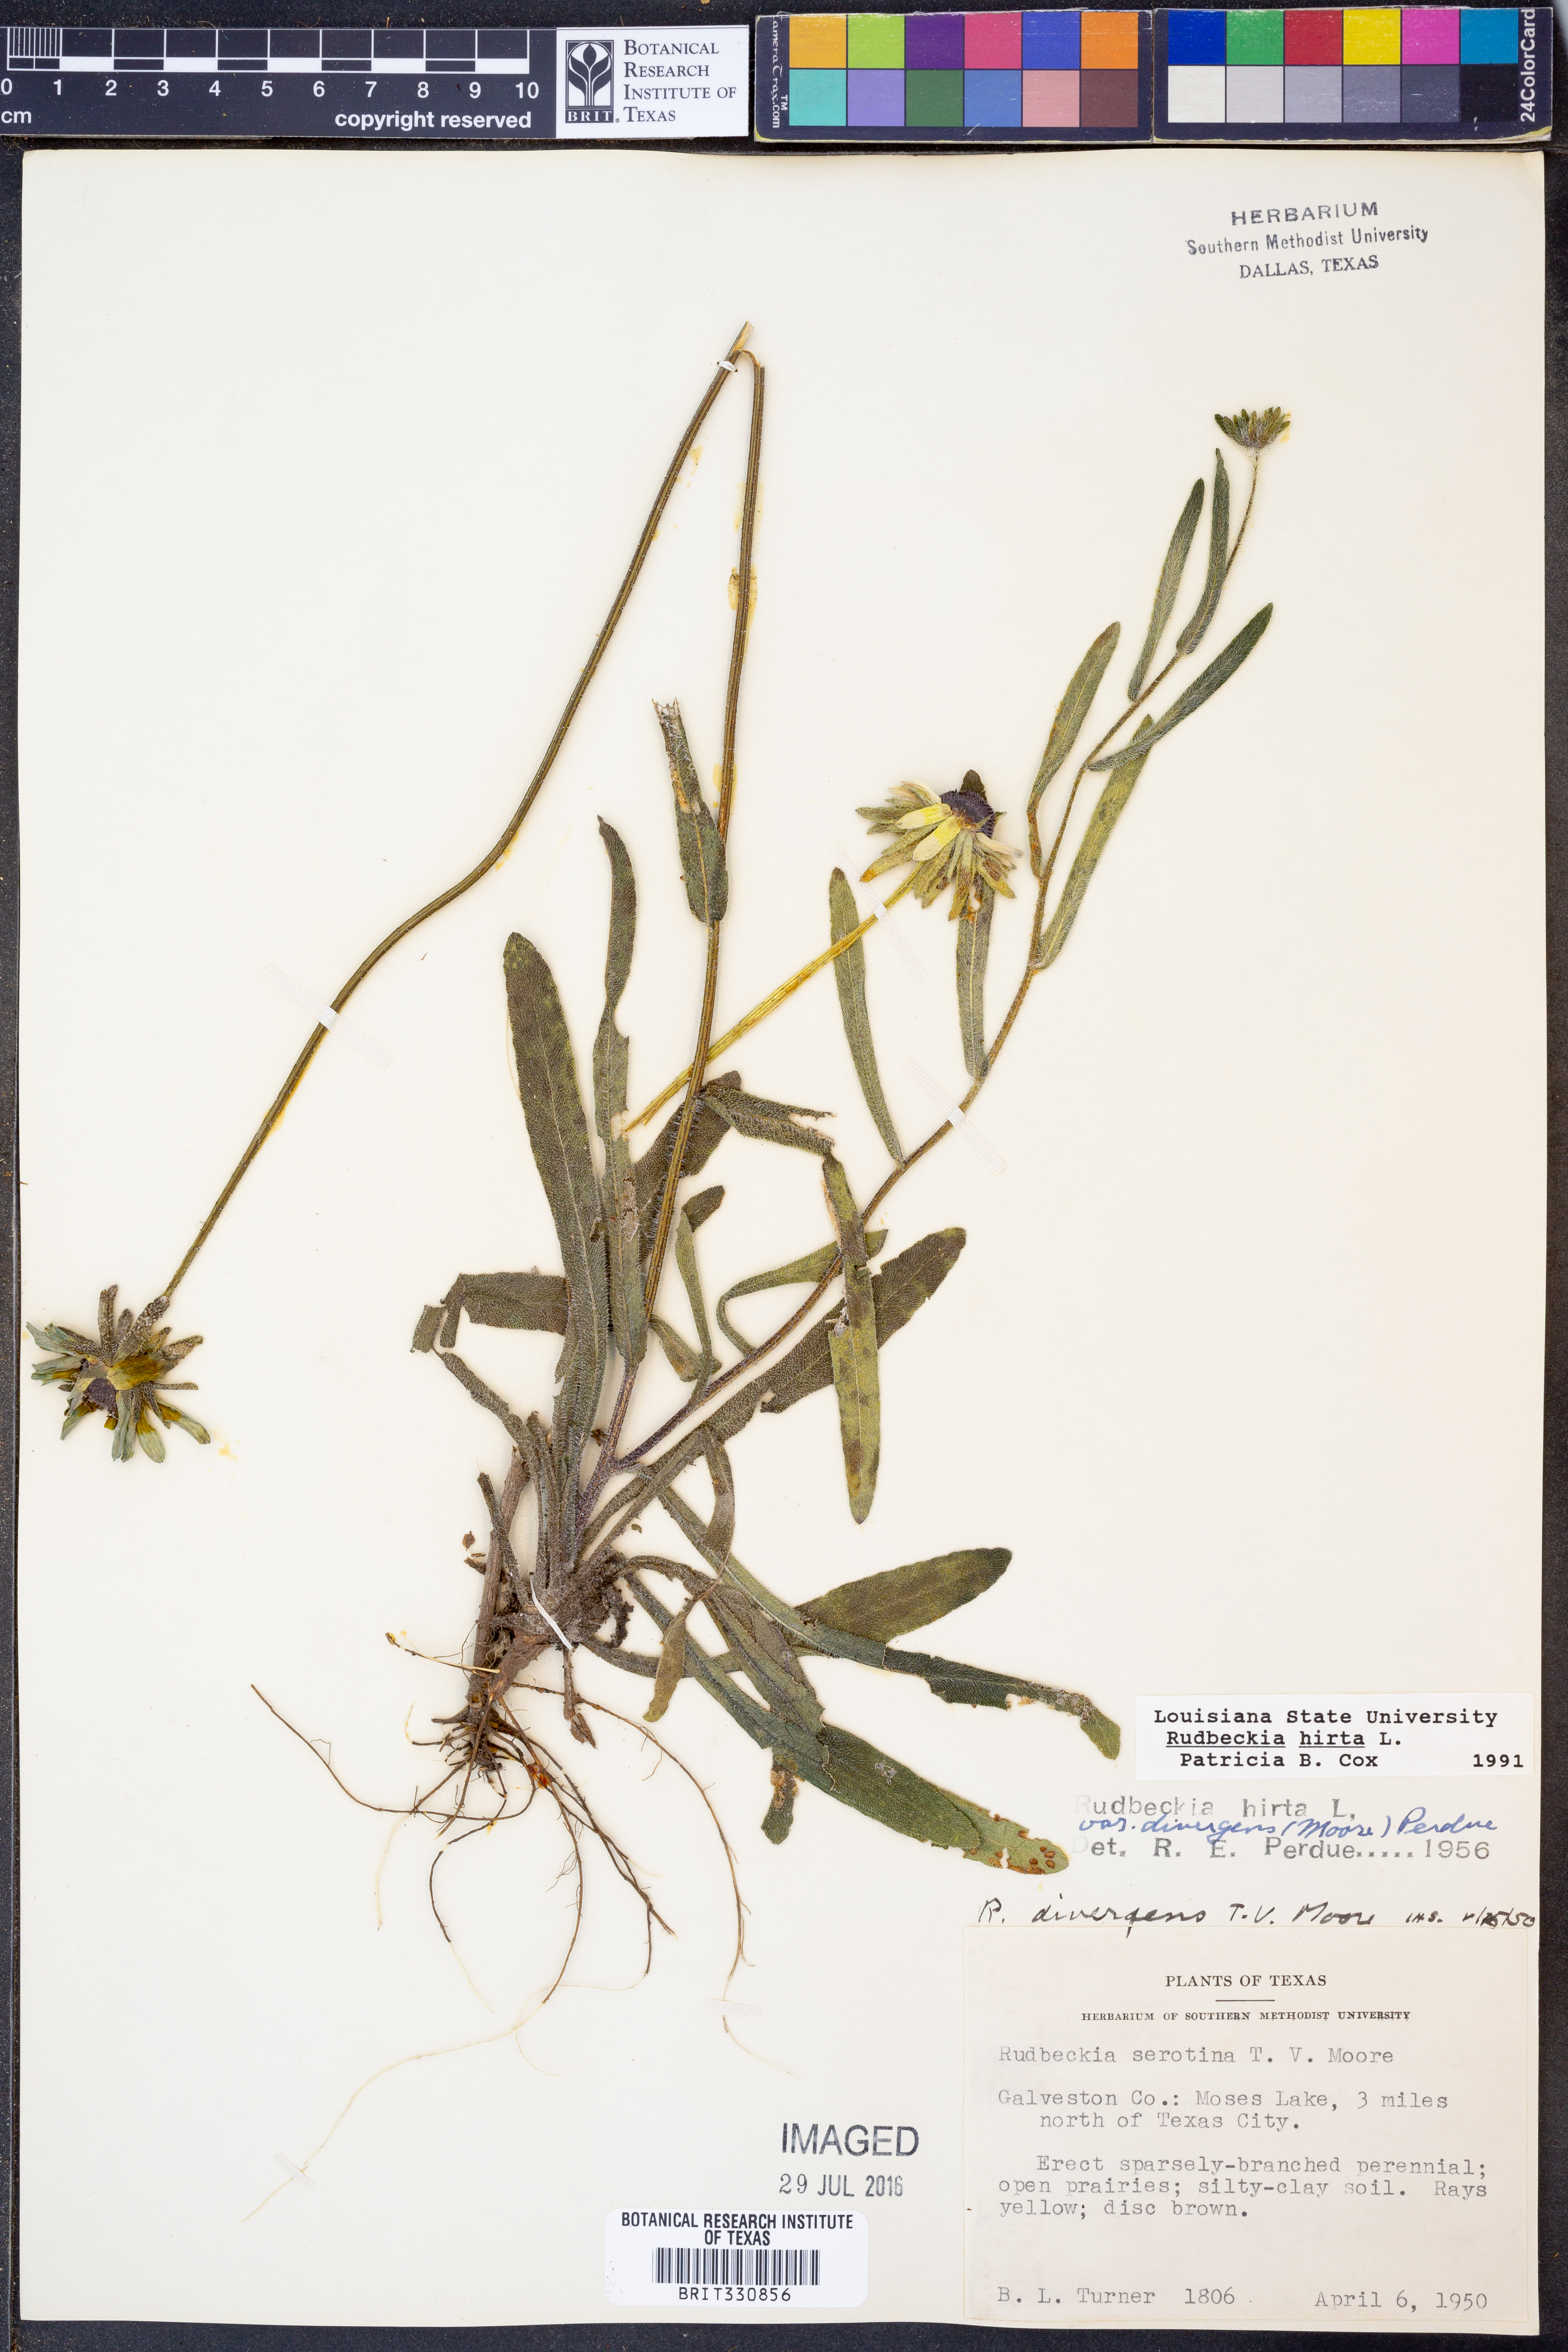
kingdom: Plantae
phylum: Tracheophyta
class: Magnoliopsida
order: Asterales
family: Asteraceae
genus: Rudbeckia
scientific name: Rudbeckia hirta
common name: Black-eyed-susan
